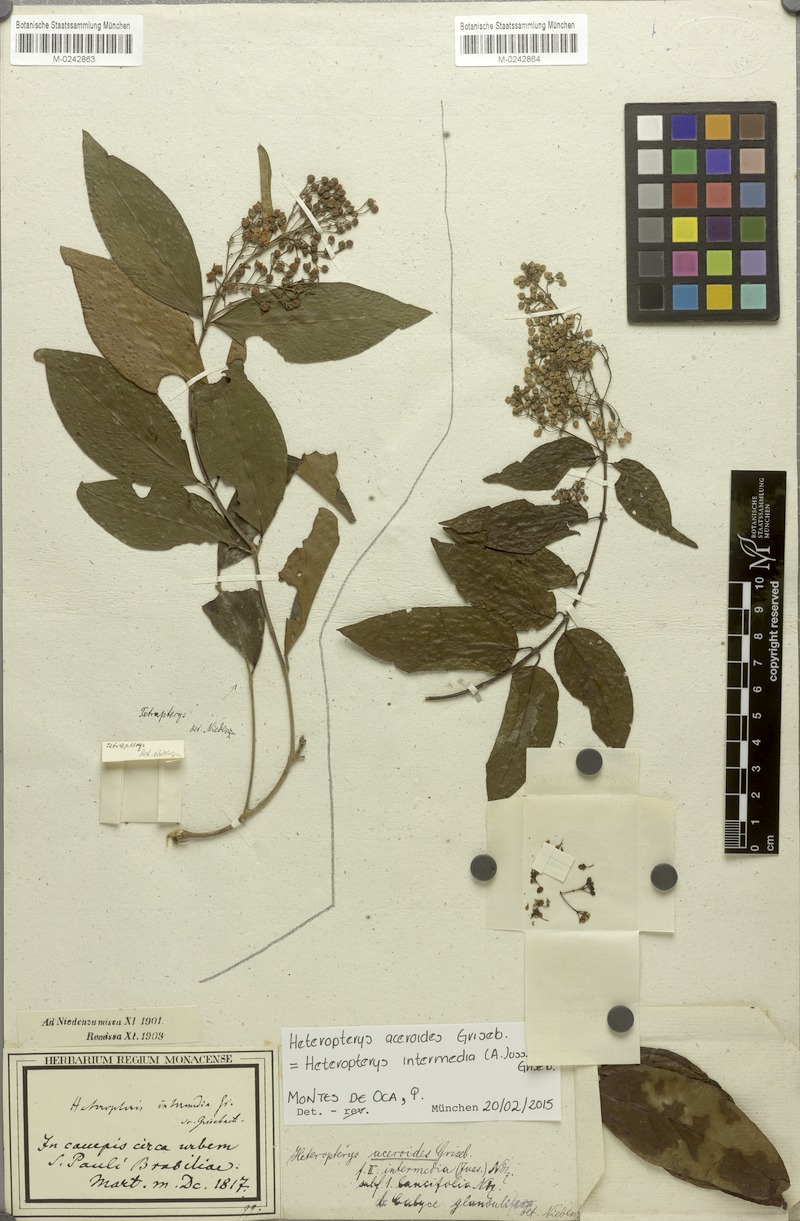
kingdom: Plantae
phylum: Tracheophyta
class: Magnoliopsida
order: Malpighiales
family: Malpighiaceae
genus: Heteropterys
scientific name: Heteropterys intermedia
